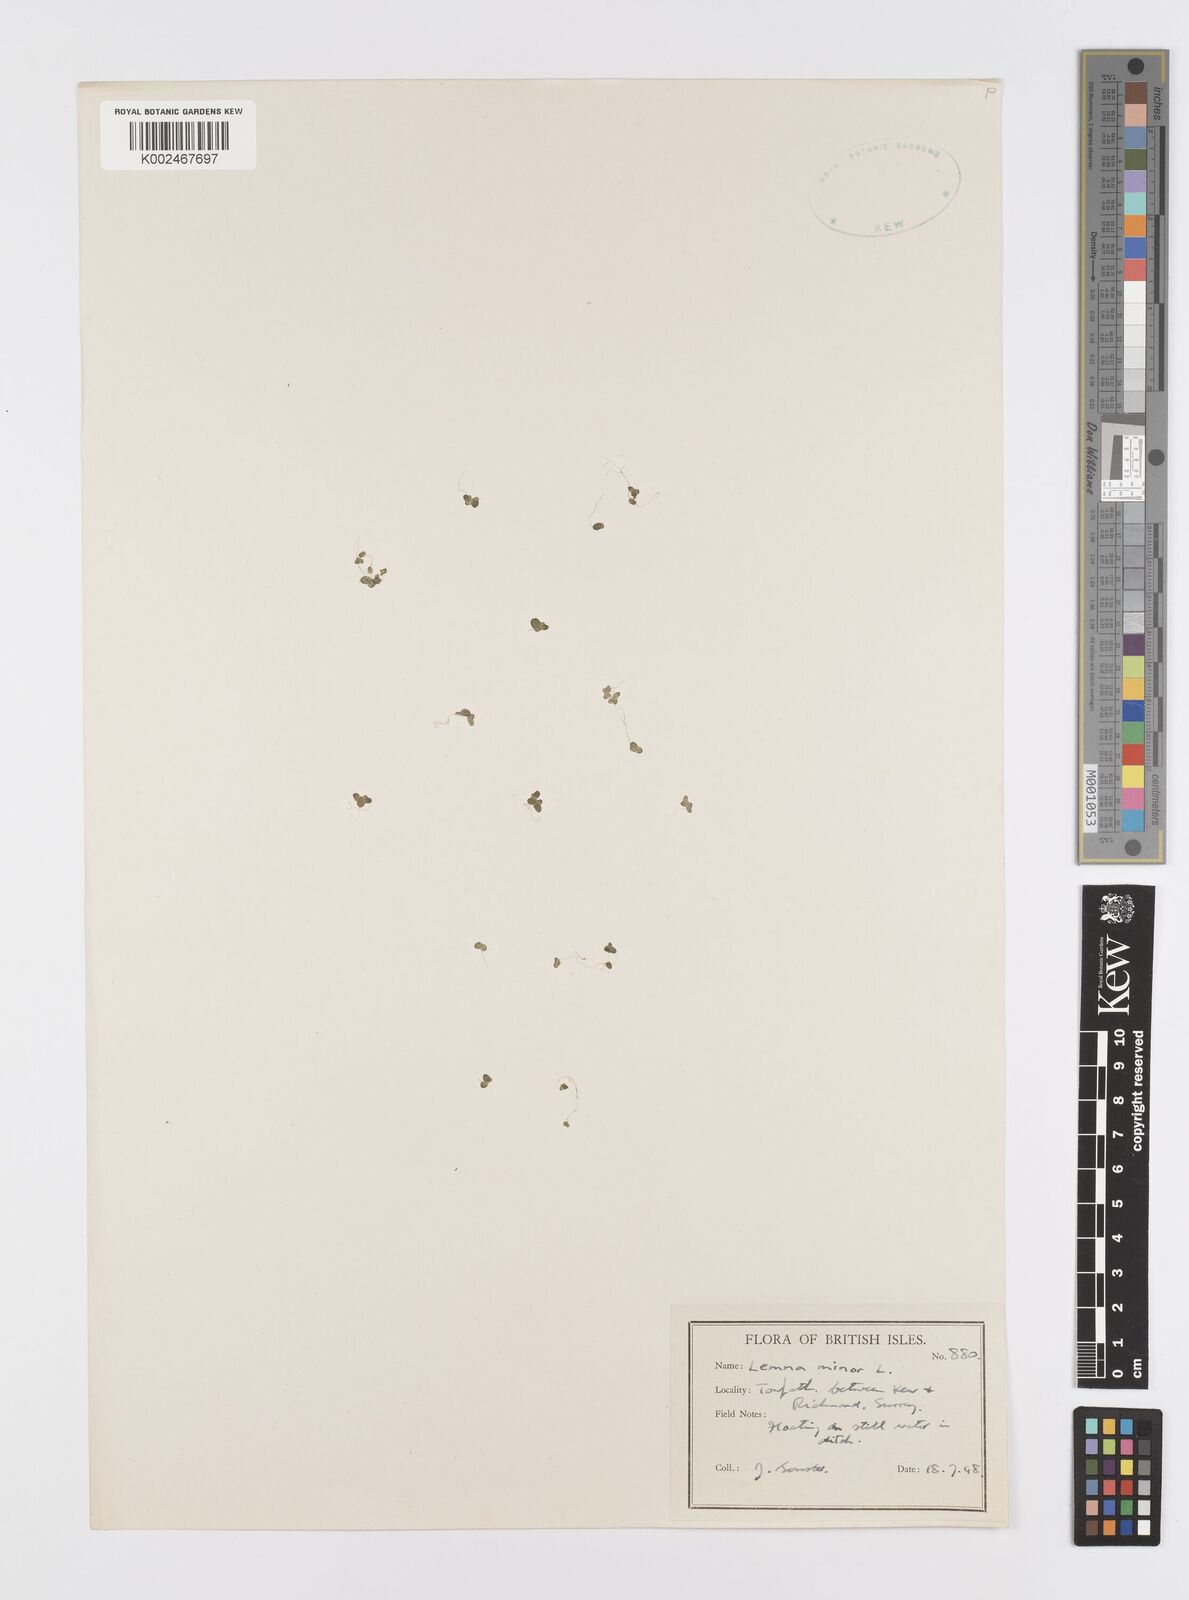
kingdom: Plantae
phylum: Tracheophyta
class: Liliopsida
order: Alismatales
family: Araceae
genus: Lemna
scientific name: Lemna minor
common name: Common duckweed
